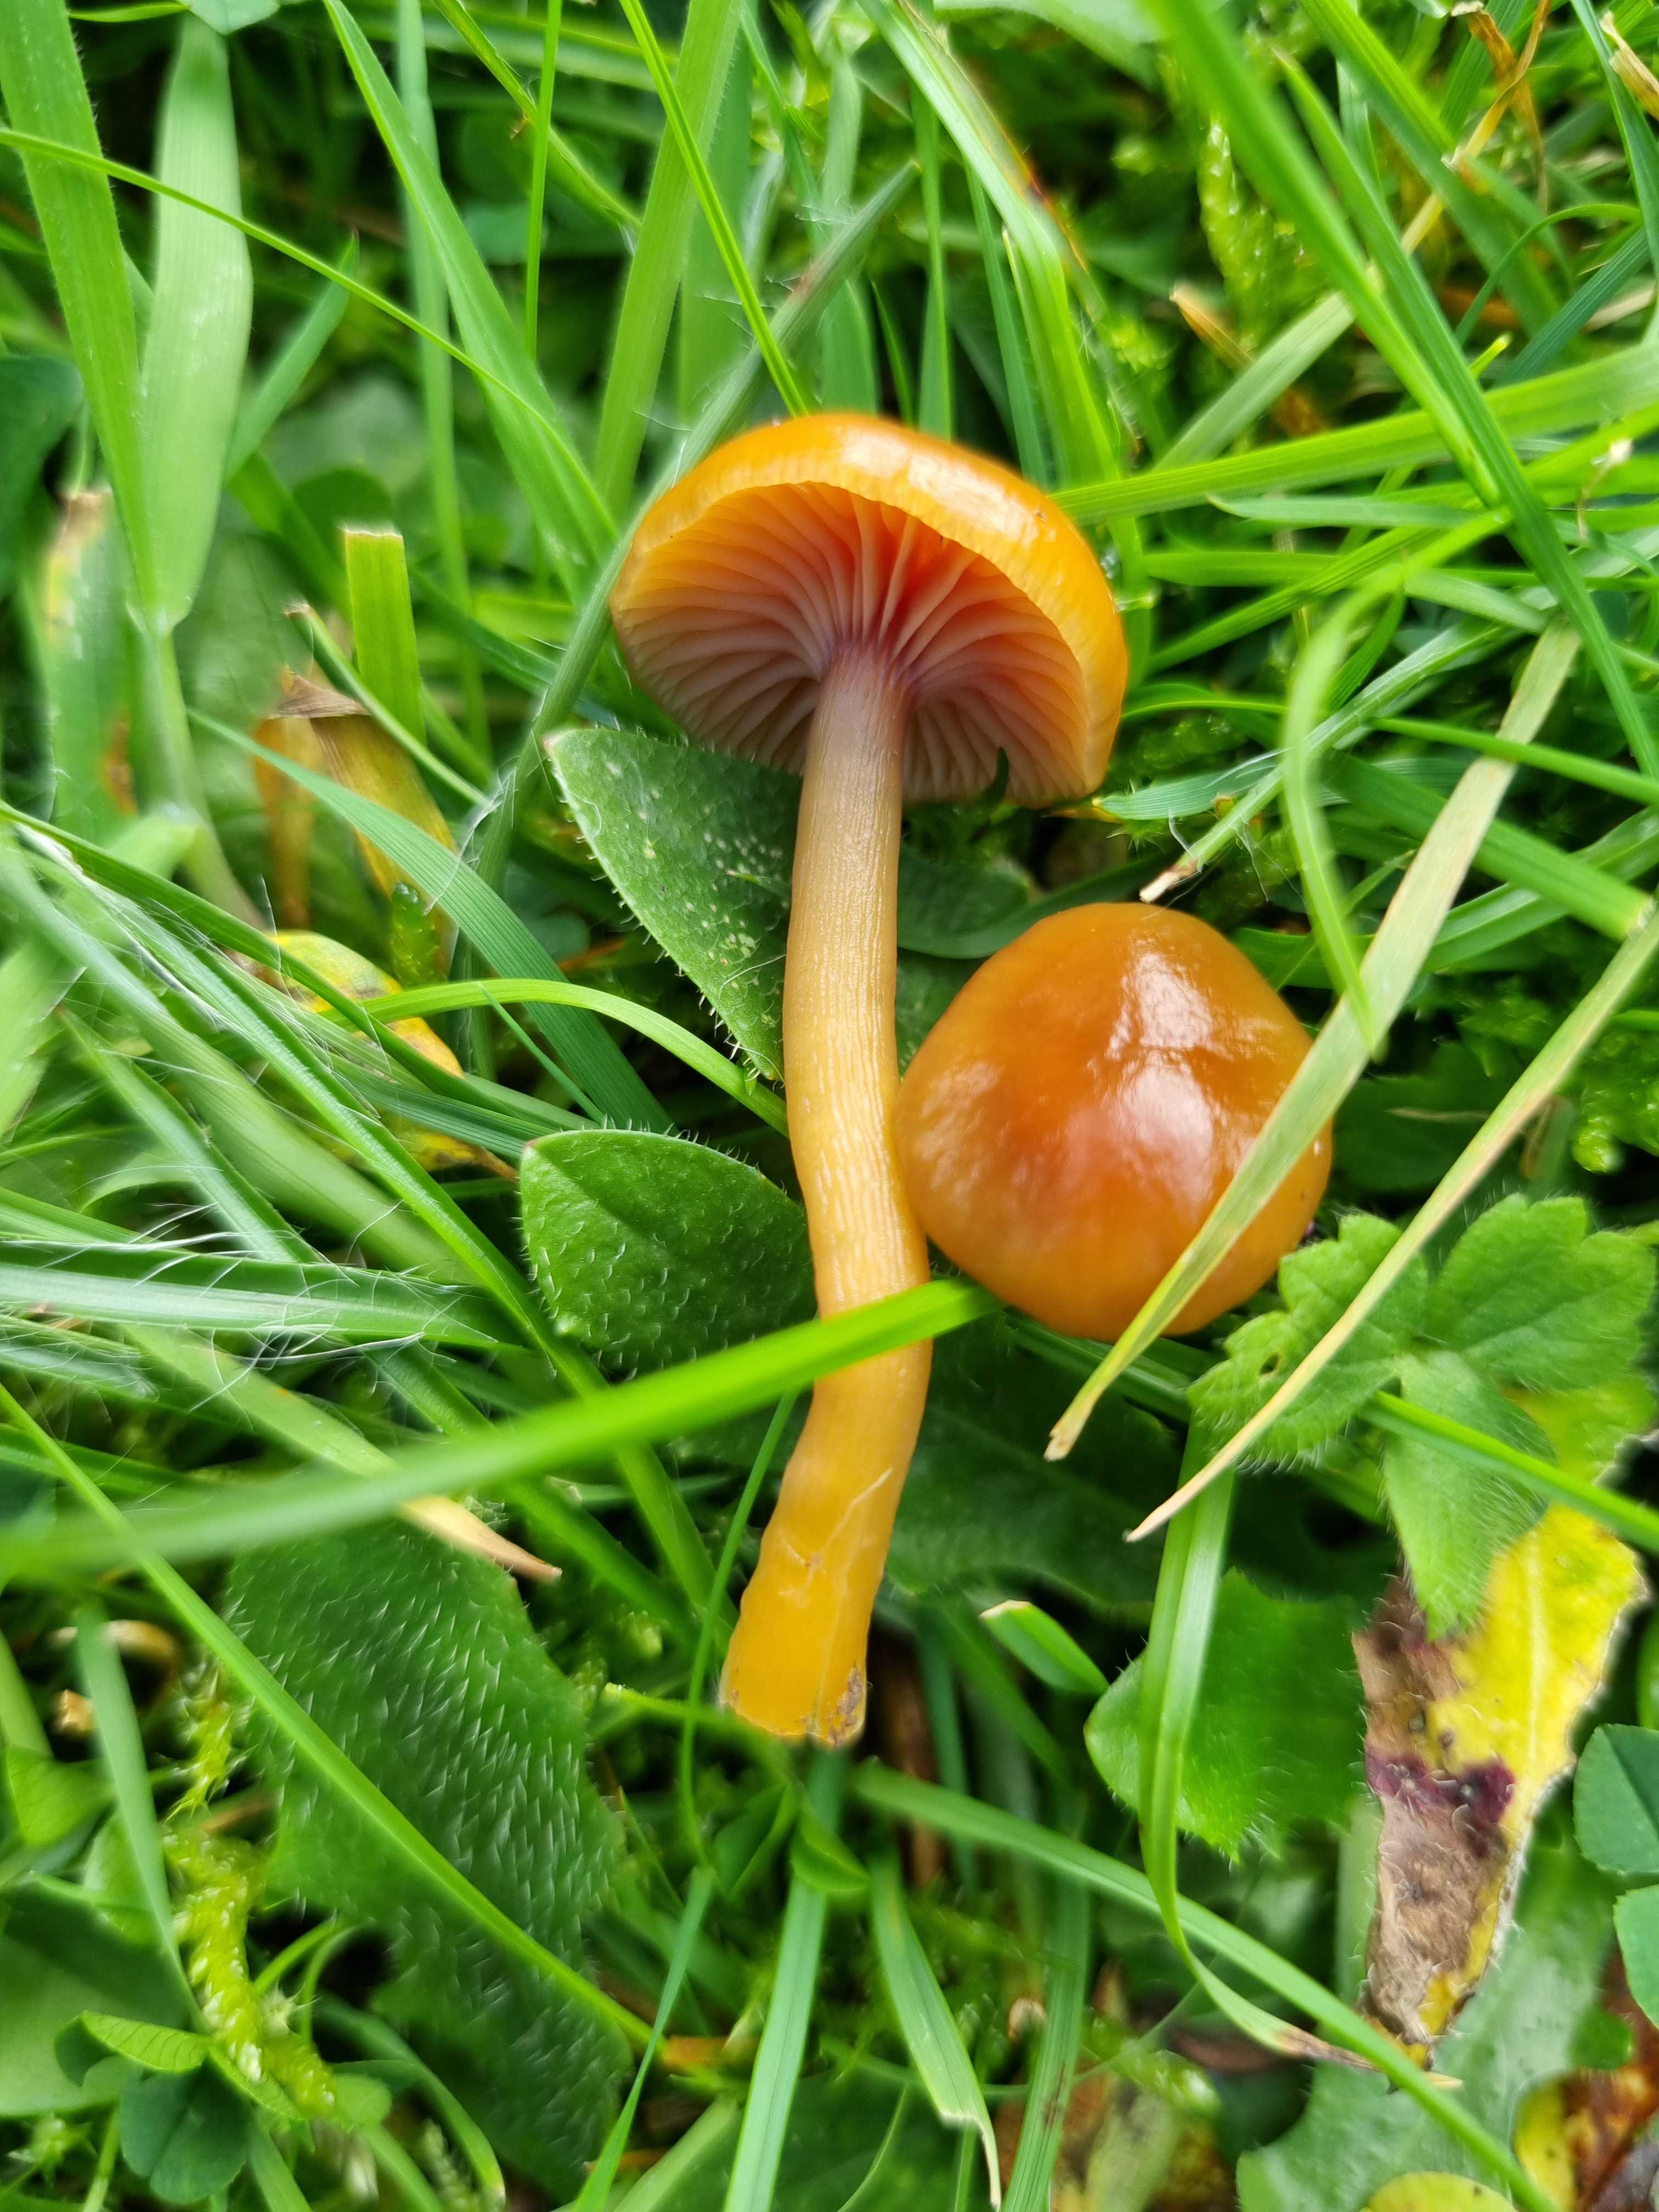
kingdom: Fungi
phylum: Basidiomycota
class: Agaricomycetes
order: Agaricales
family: Hygrophoraceae
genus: Gliophorus
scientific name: Gliophorus laetus
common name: brusk-vokshat
